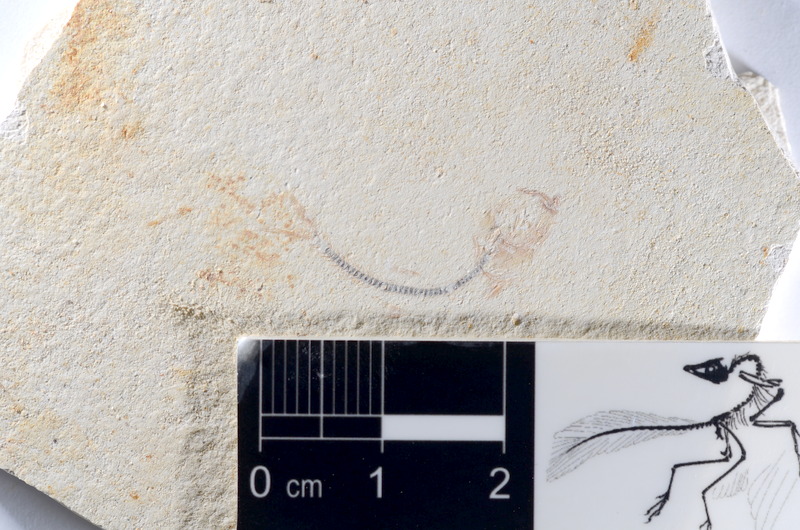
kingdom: Animalia
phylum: Chordata
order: Salmoniformes
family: Orthogonikleithridae
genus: Orthogonikleithrus
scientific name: Orthogonikleithrus hoelli
